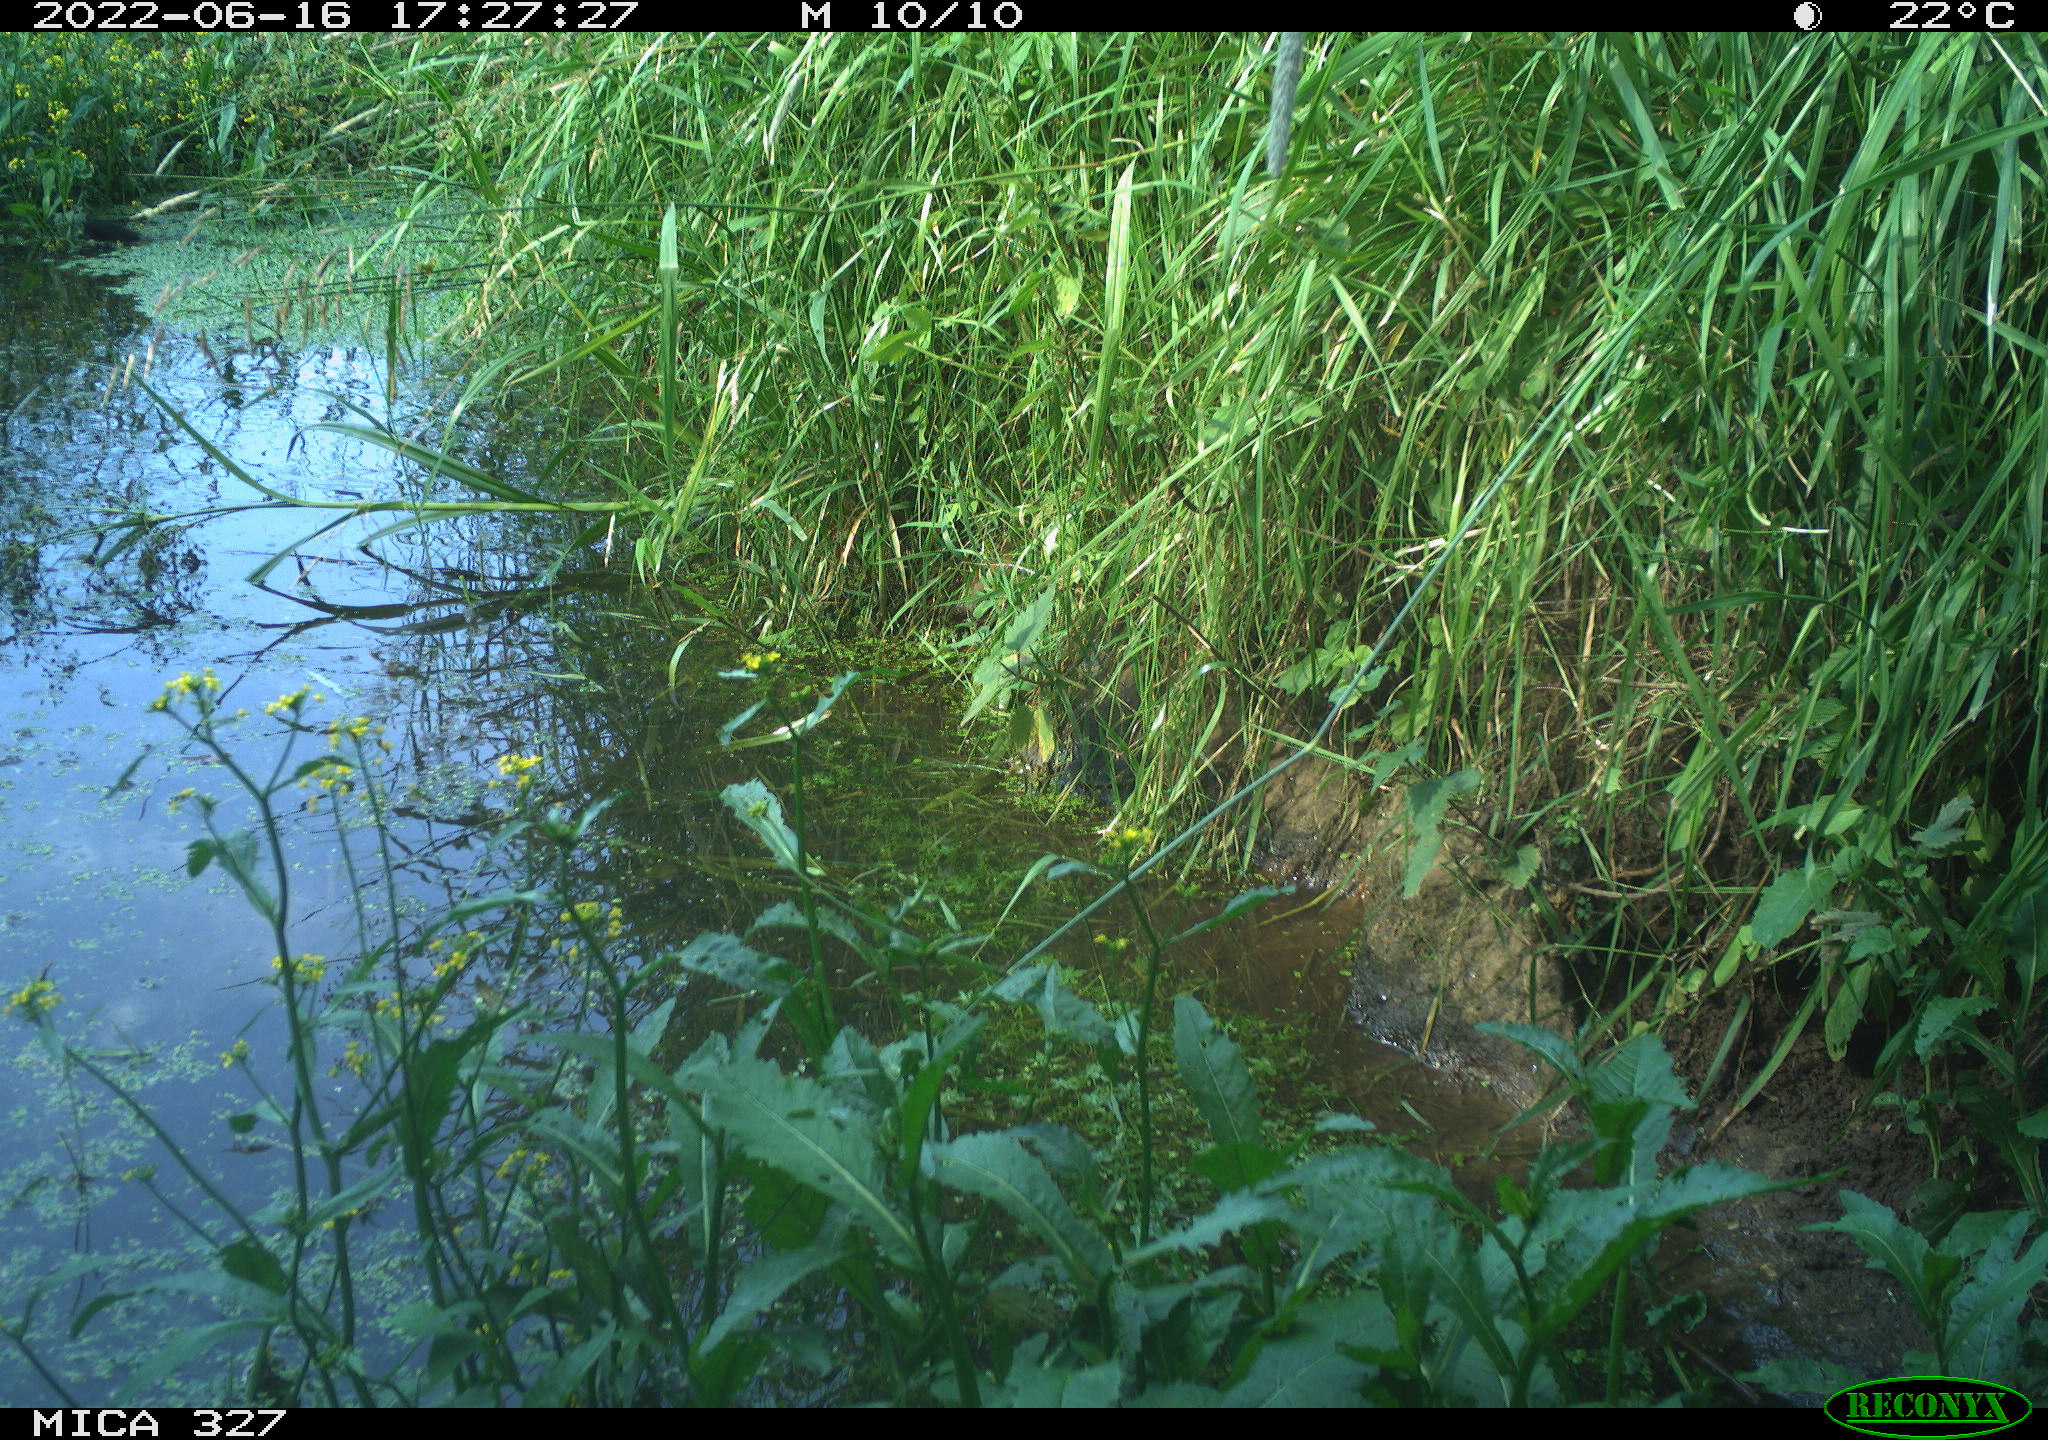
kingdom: Animalia
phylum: Chordata
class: Aves
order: Gruiformes
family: Rallidae
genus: Gallinula
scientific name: Gallinula chloropus
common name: Common moorhen
